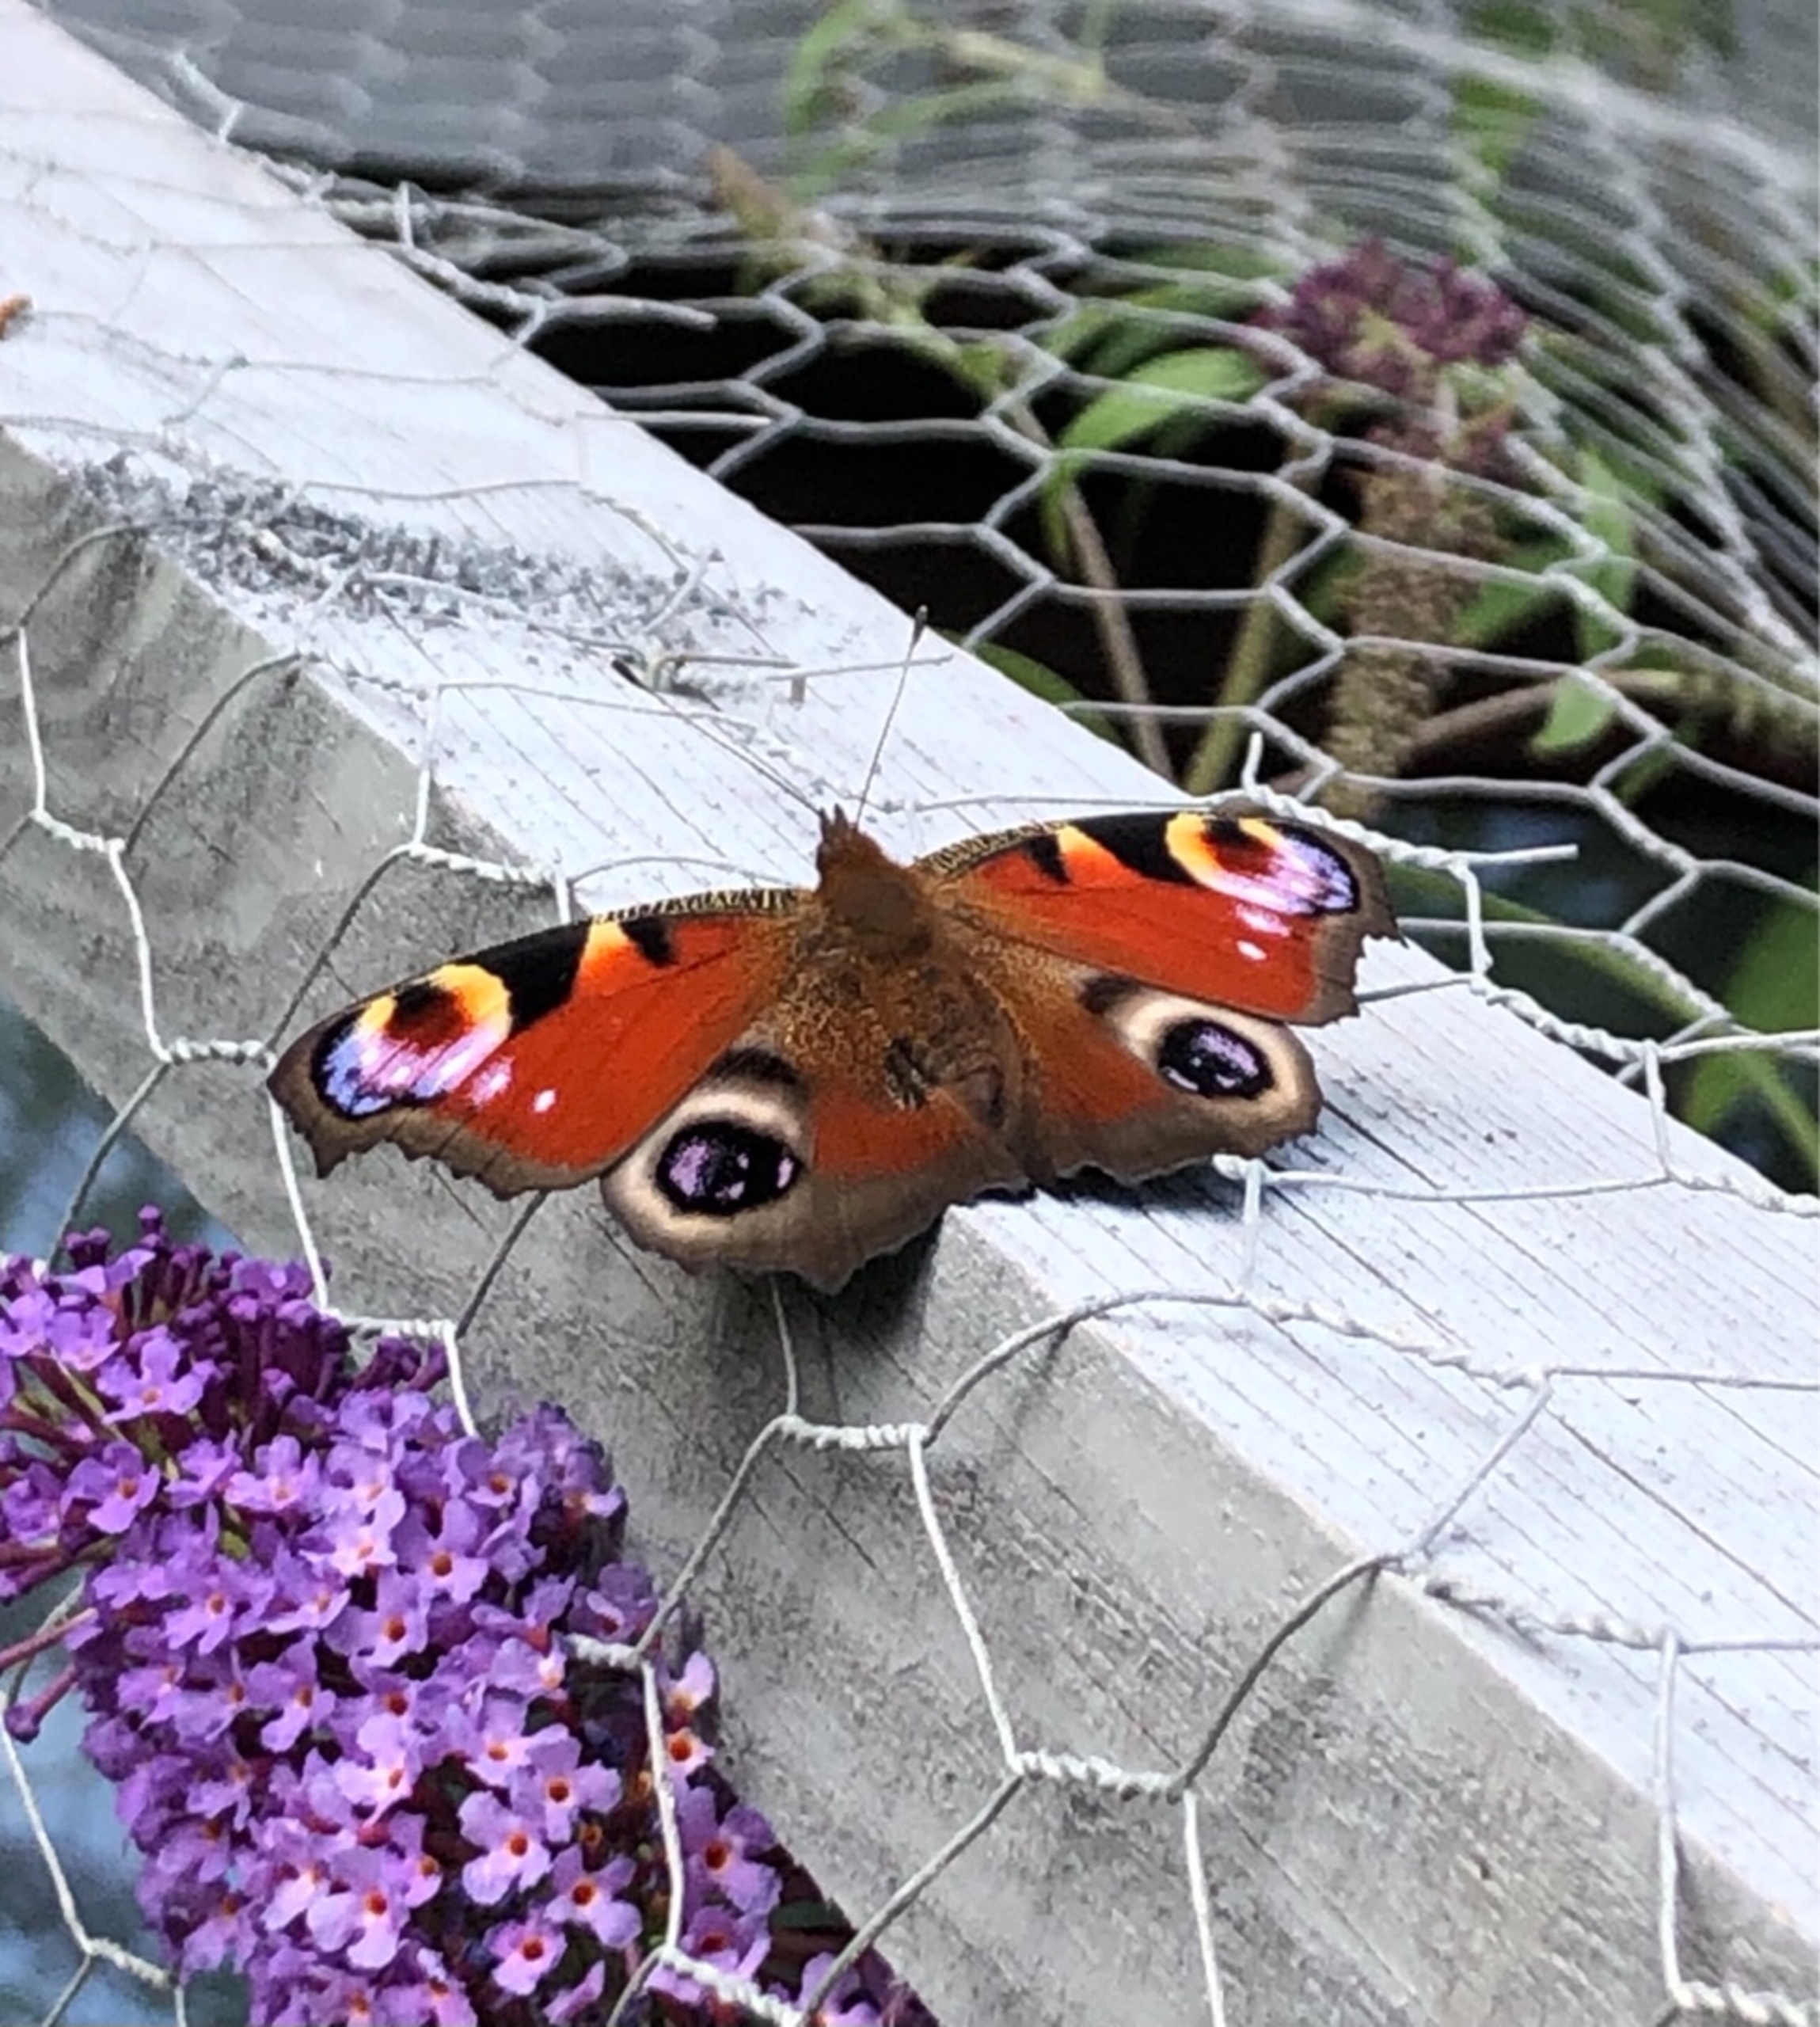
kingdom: Animalia
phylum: Arthropoda
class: Insecta
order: Lepidoptera
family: Nymphalidae
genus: Aglais
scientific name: Aglais io
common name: Dagpåfugleøje
